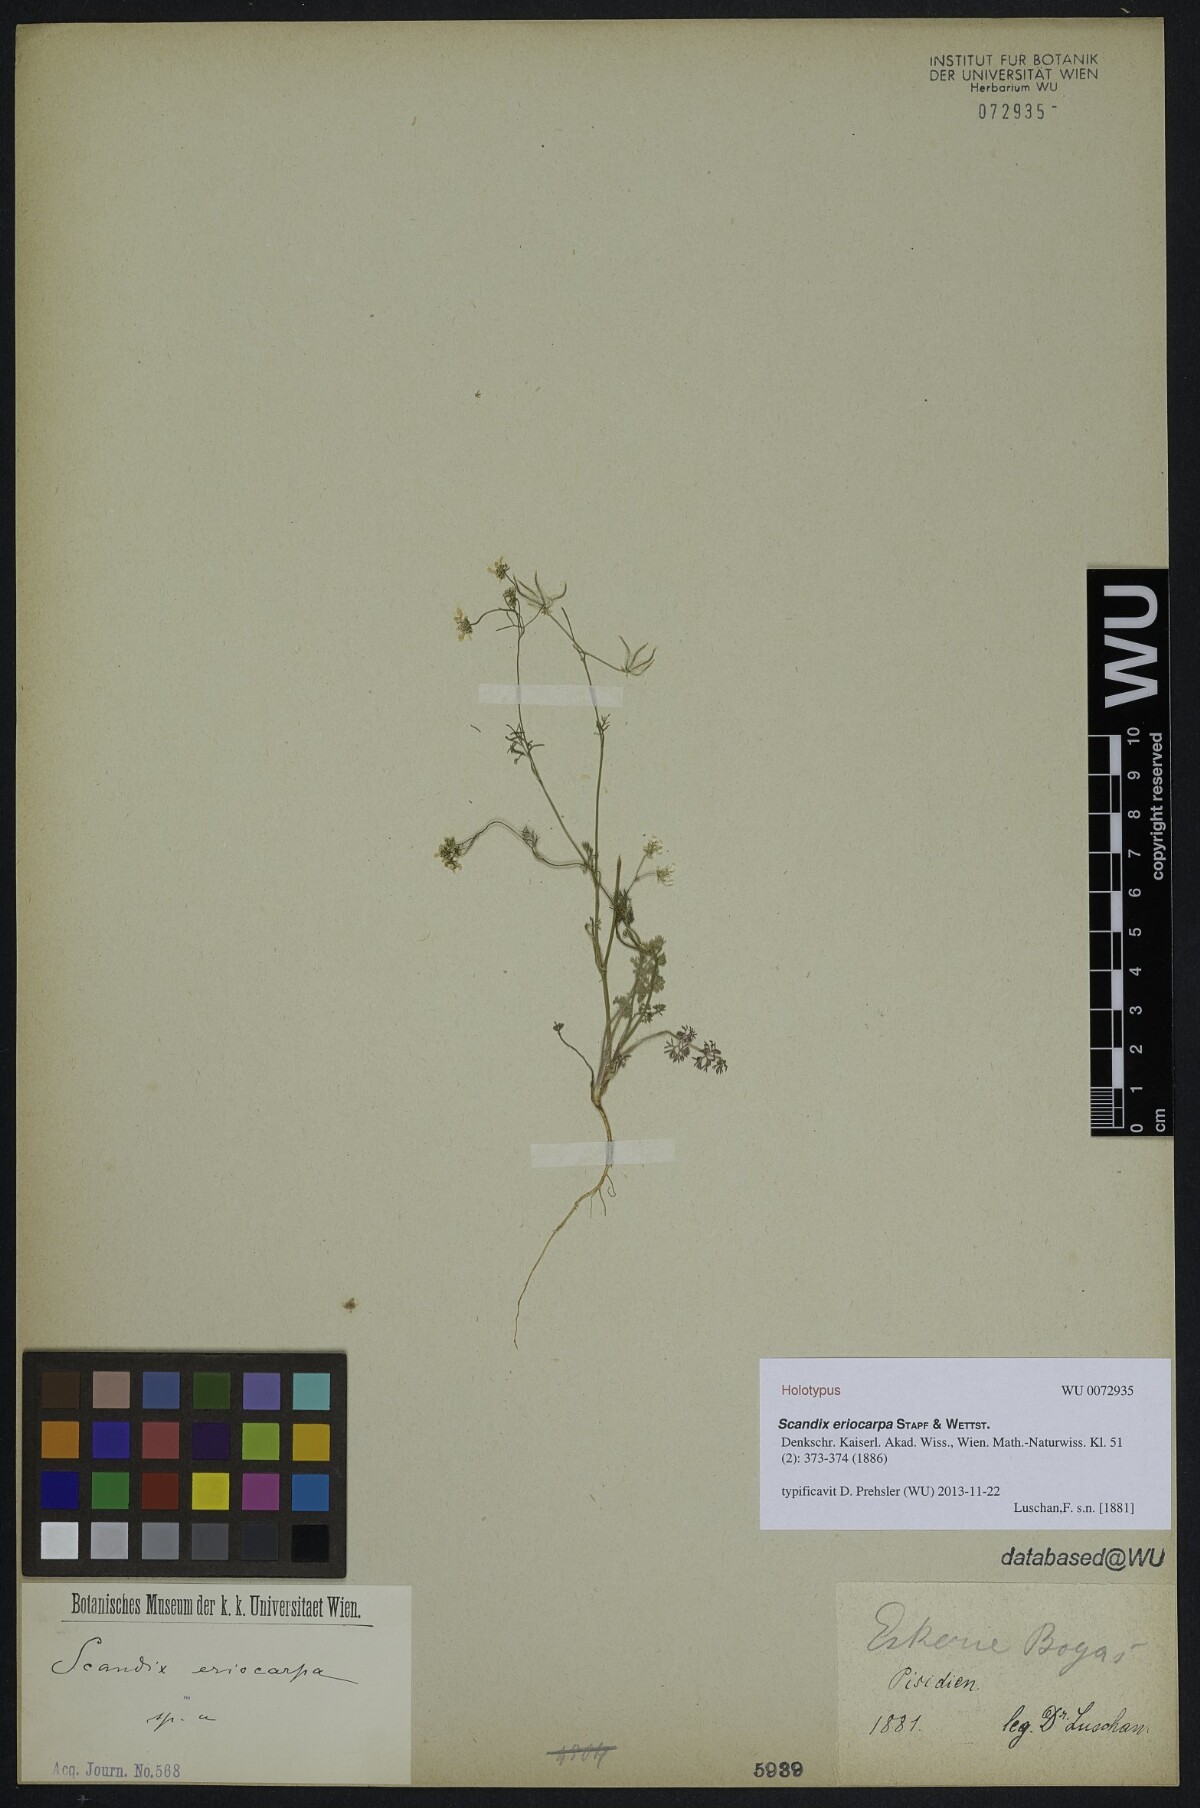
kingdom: Plantae
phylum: Tracheophyta
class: Magnoliopsida
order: Apiales
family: Apiaceae
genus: Scandix
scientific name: Scandix iberica
